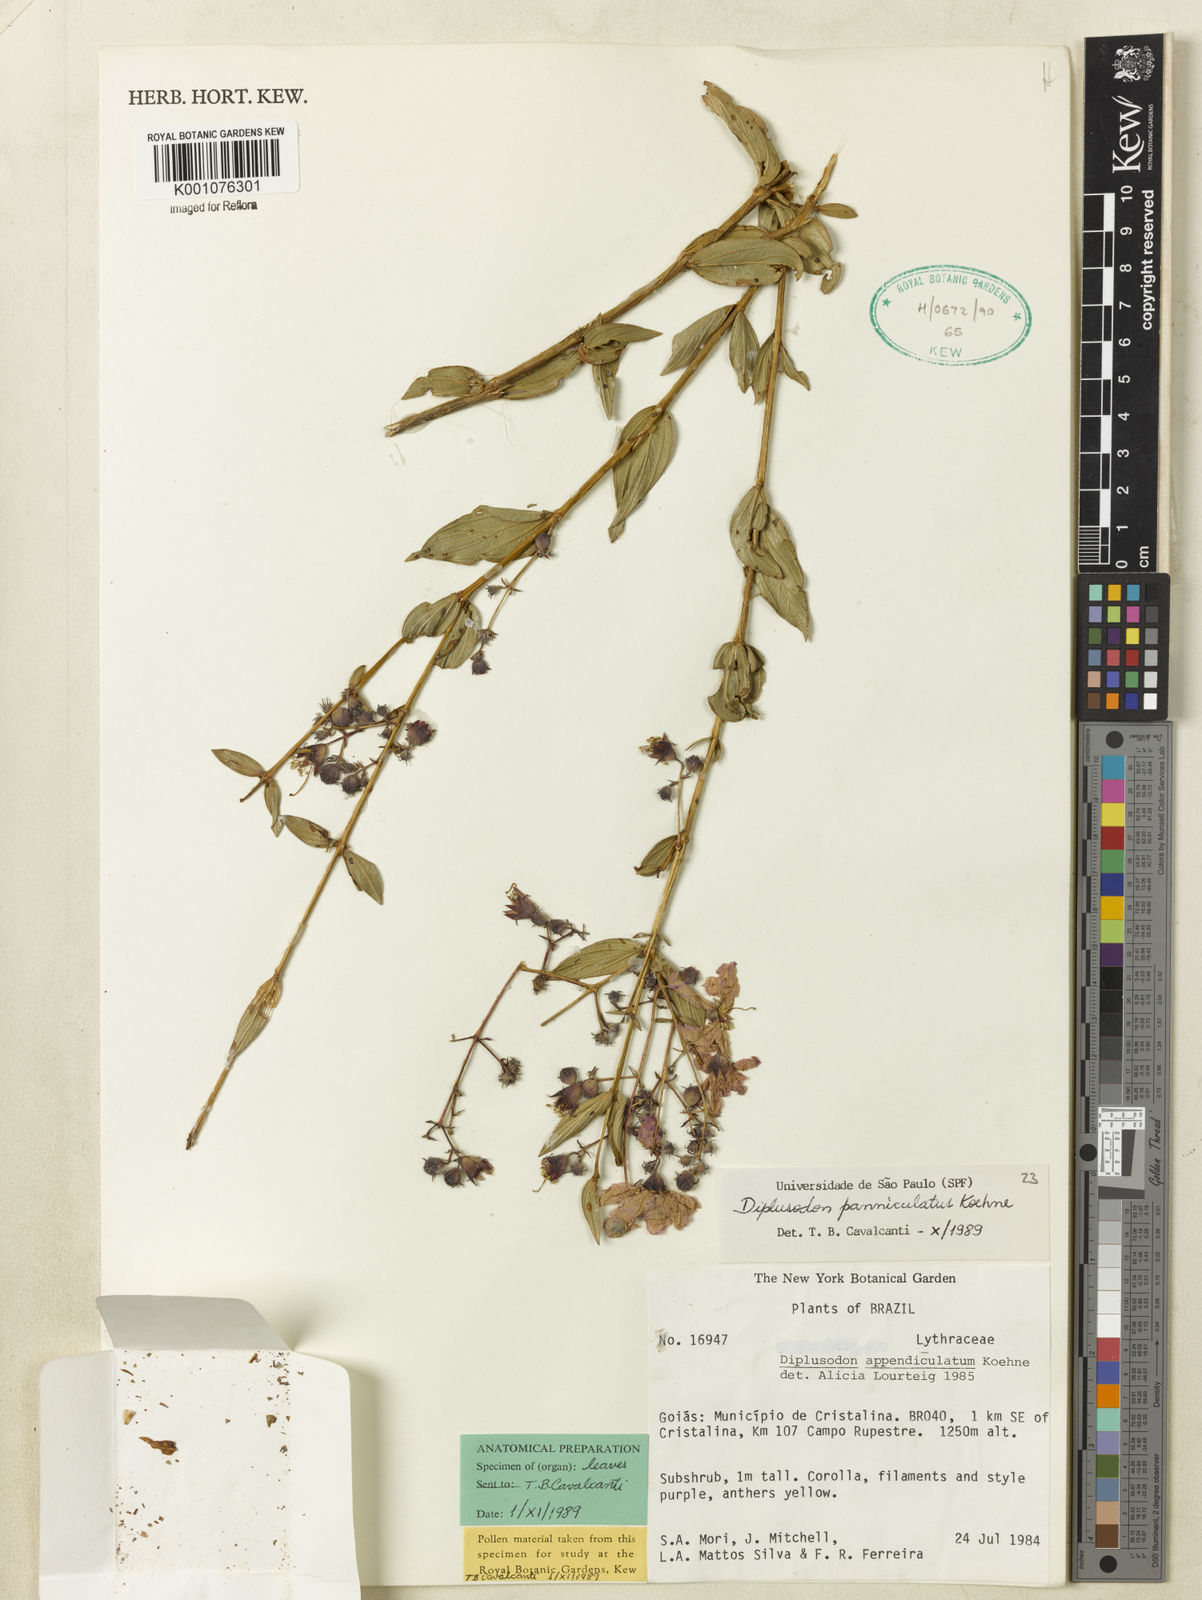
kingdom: Plantae
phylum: Tracheophyta
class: Magnoliopsida
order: Myrtales
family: Lythraceae
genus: Diplusodon
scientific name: Diplusodon panniculatus
